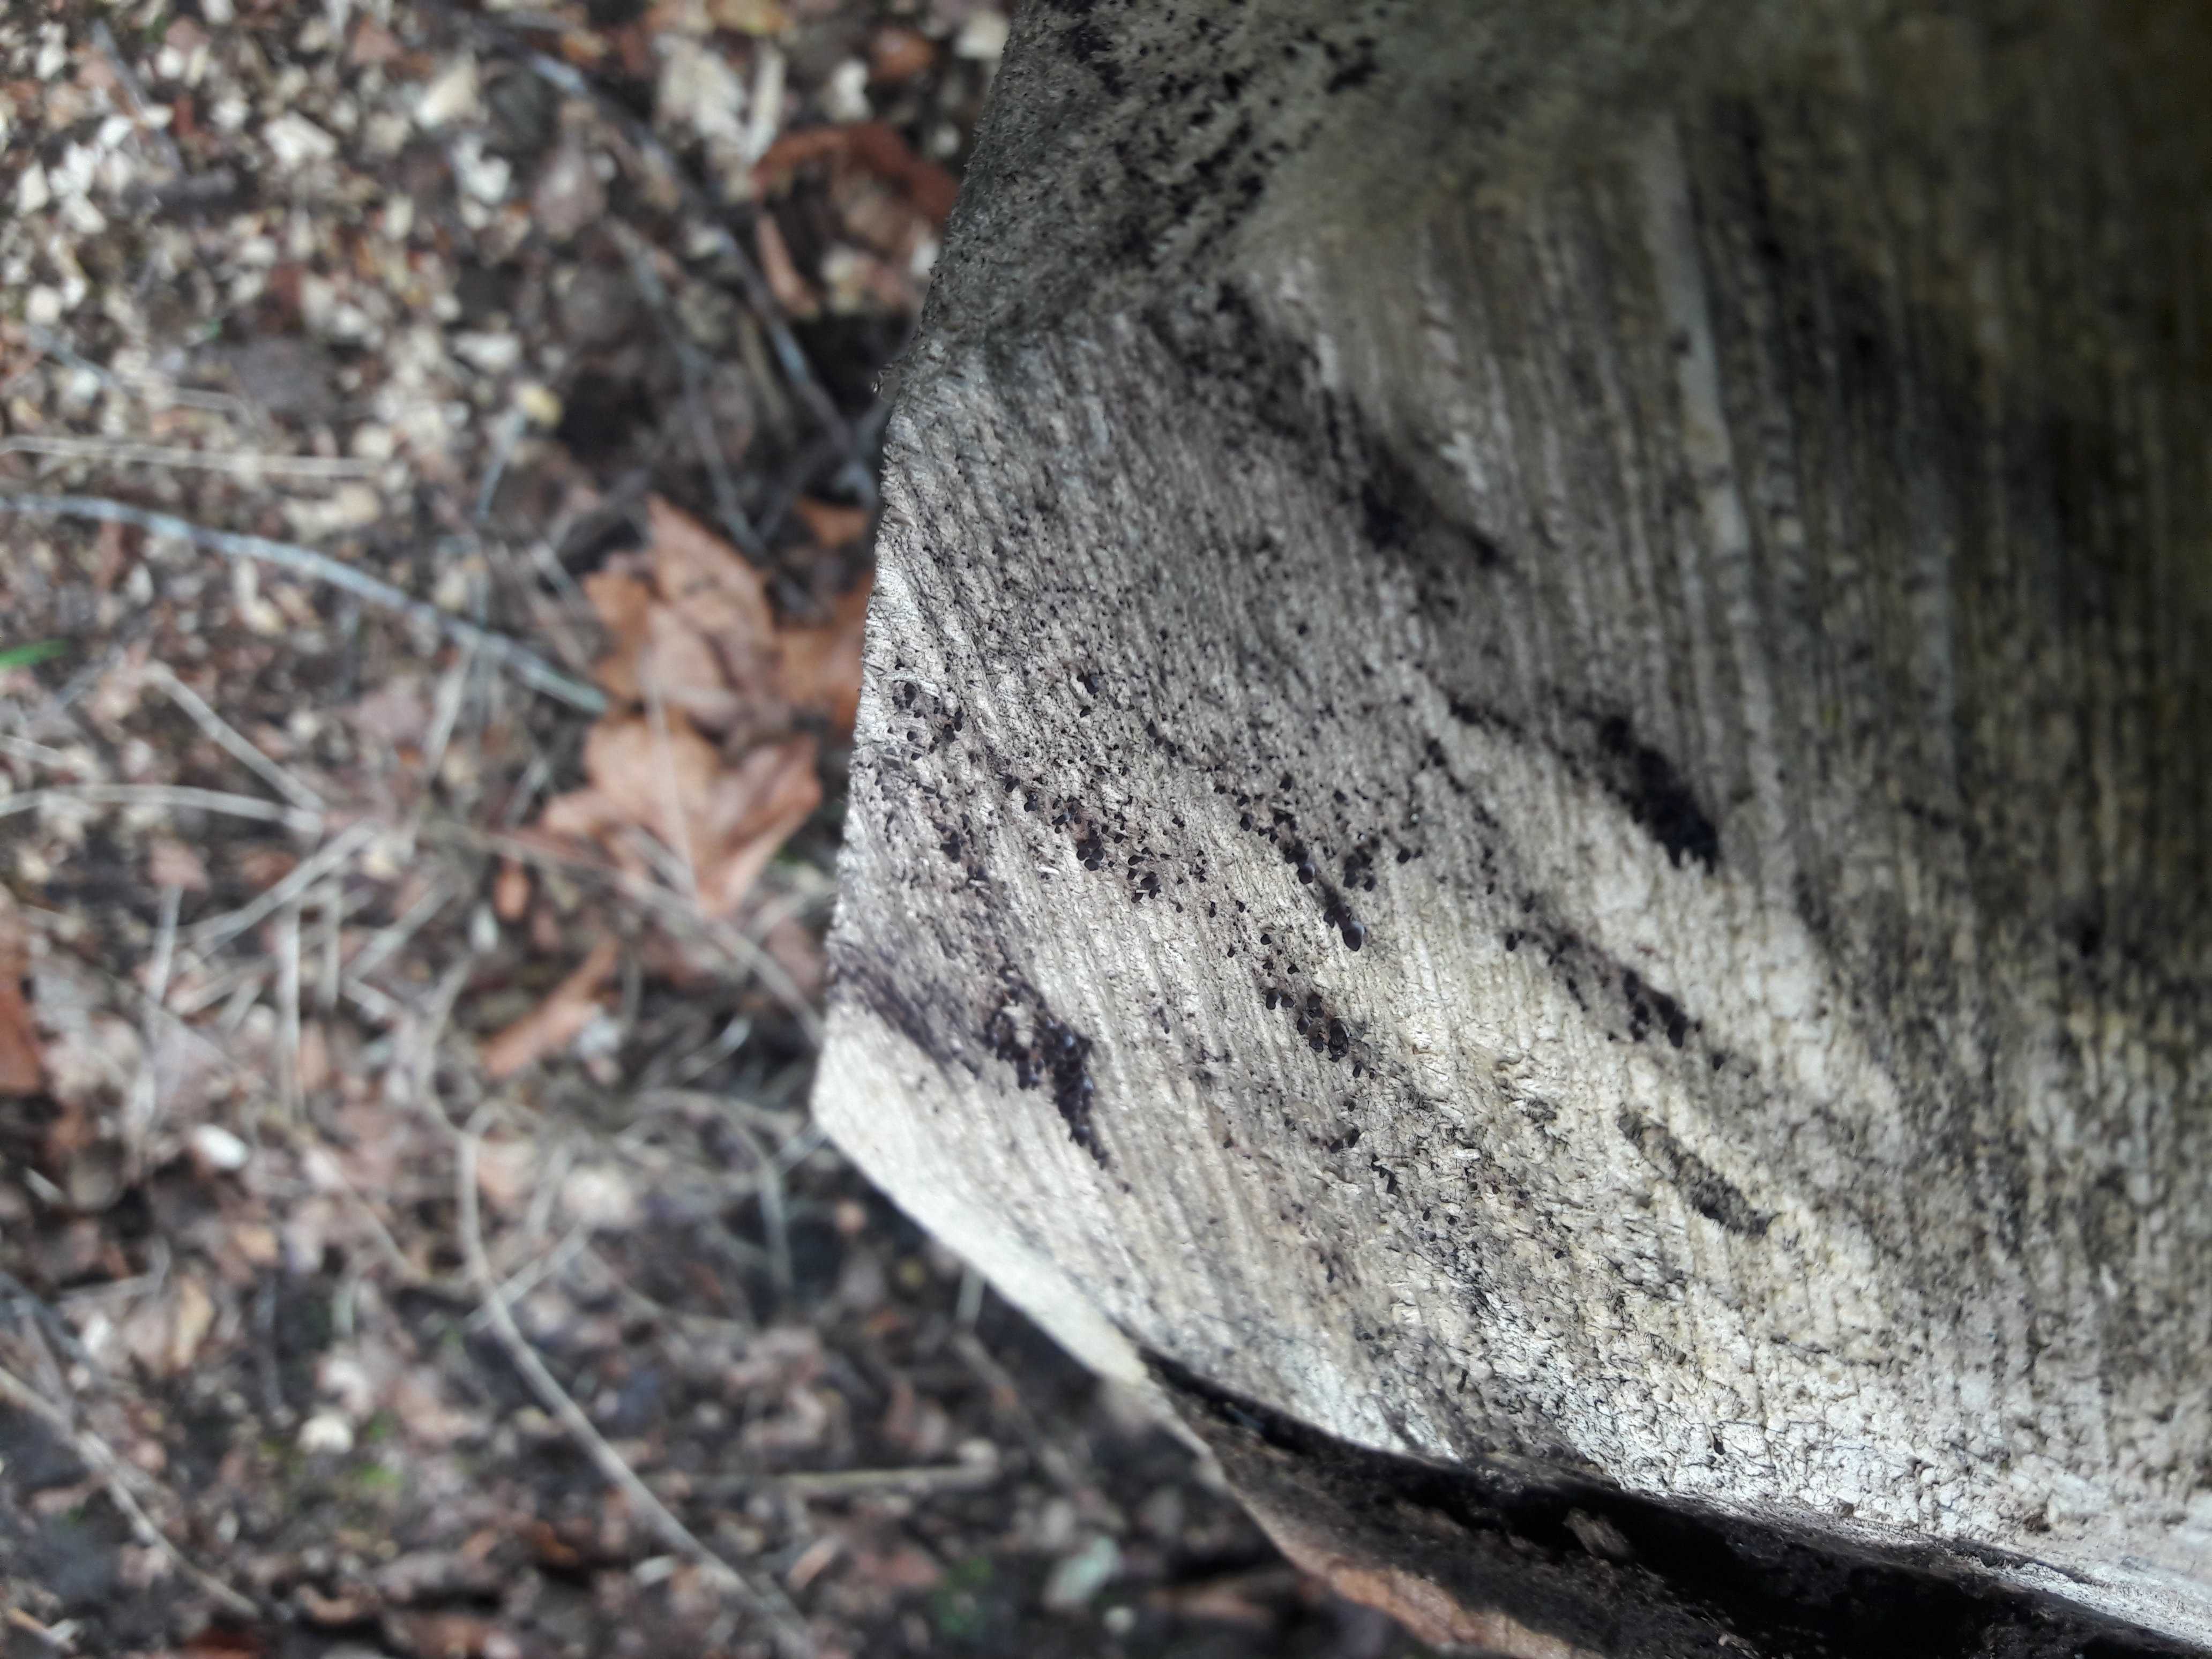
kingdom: Fungi
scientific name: Fungi
